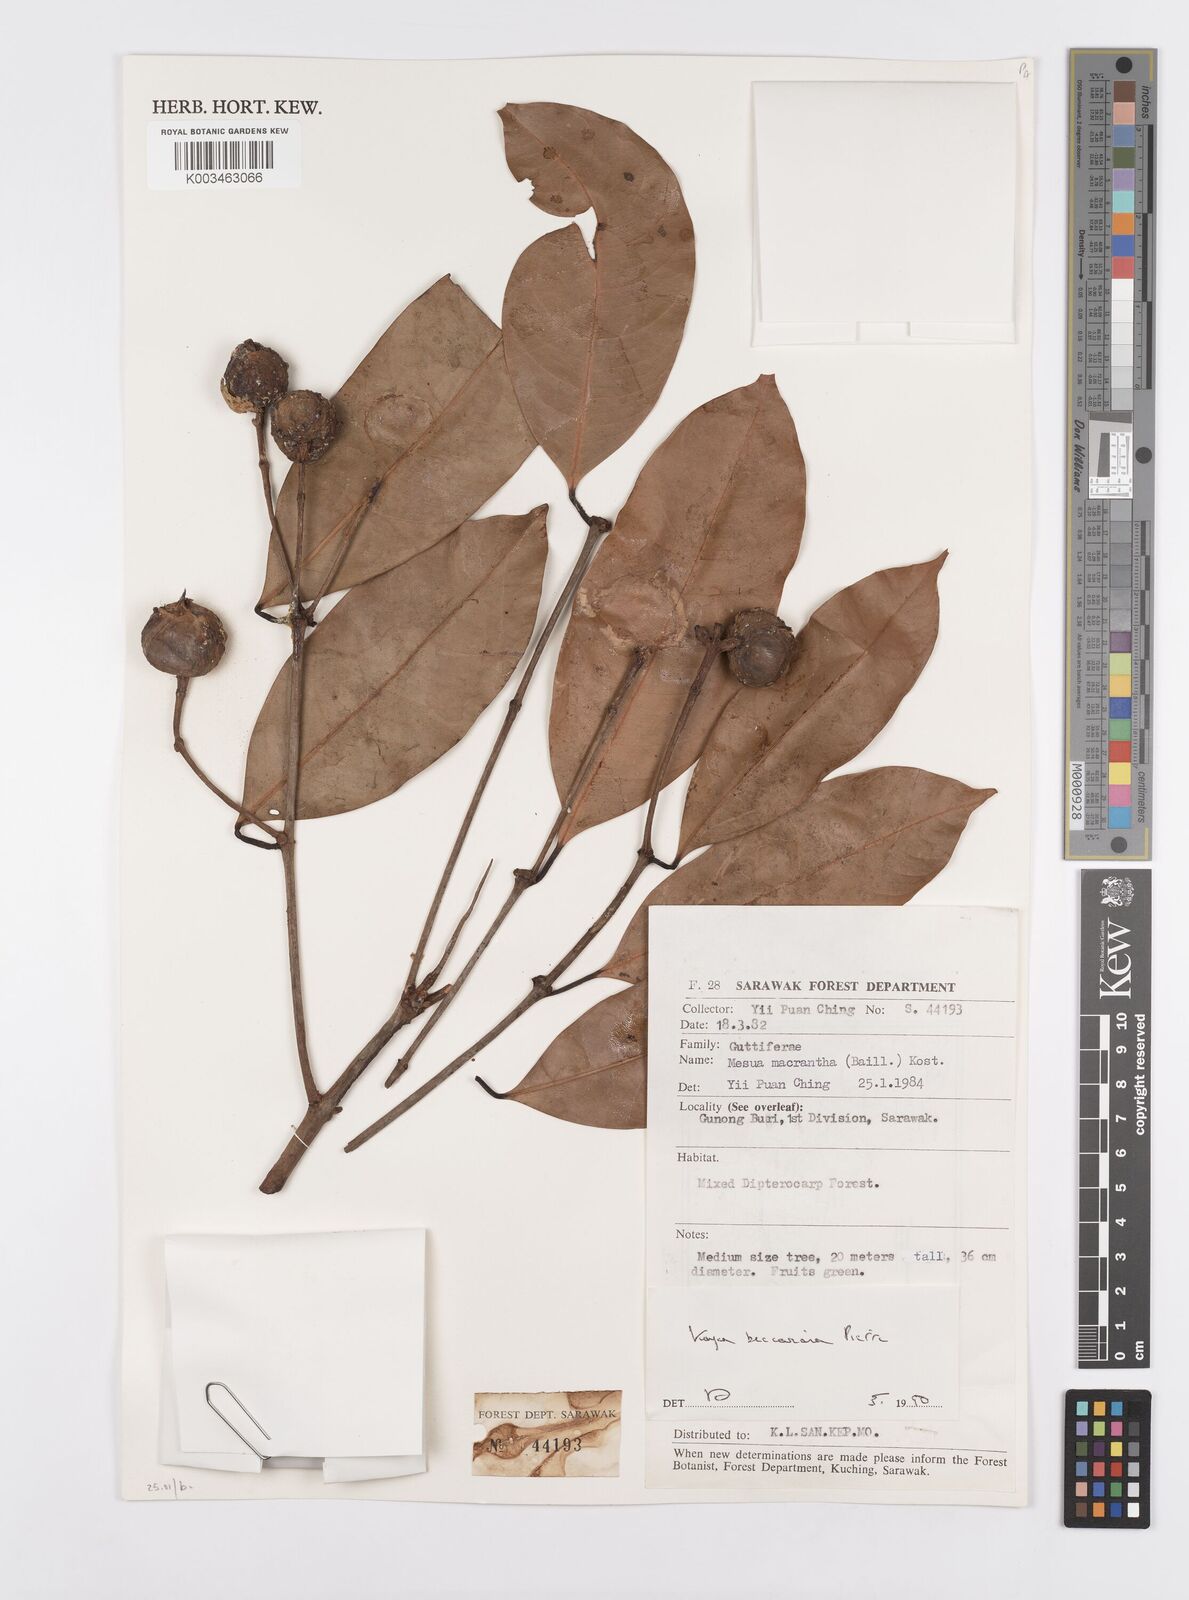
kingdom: Plantae
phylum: Tracheophyta
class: Magnoliopsida
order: Malpighiales
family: Calophyllaceae
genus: Kayea
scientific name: Kayea beccariana
